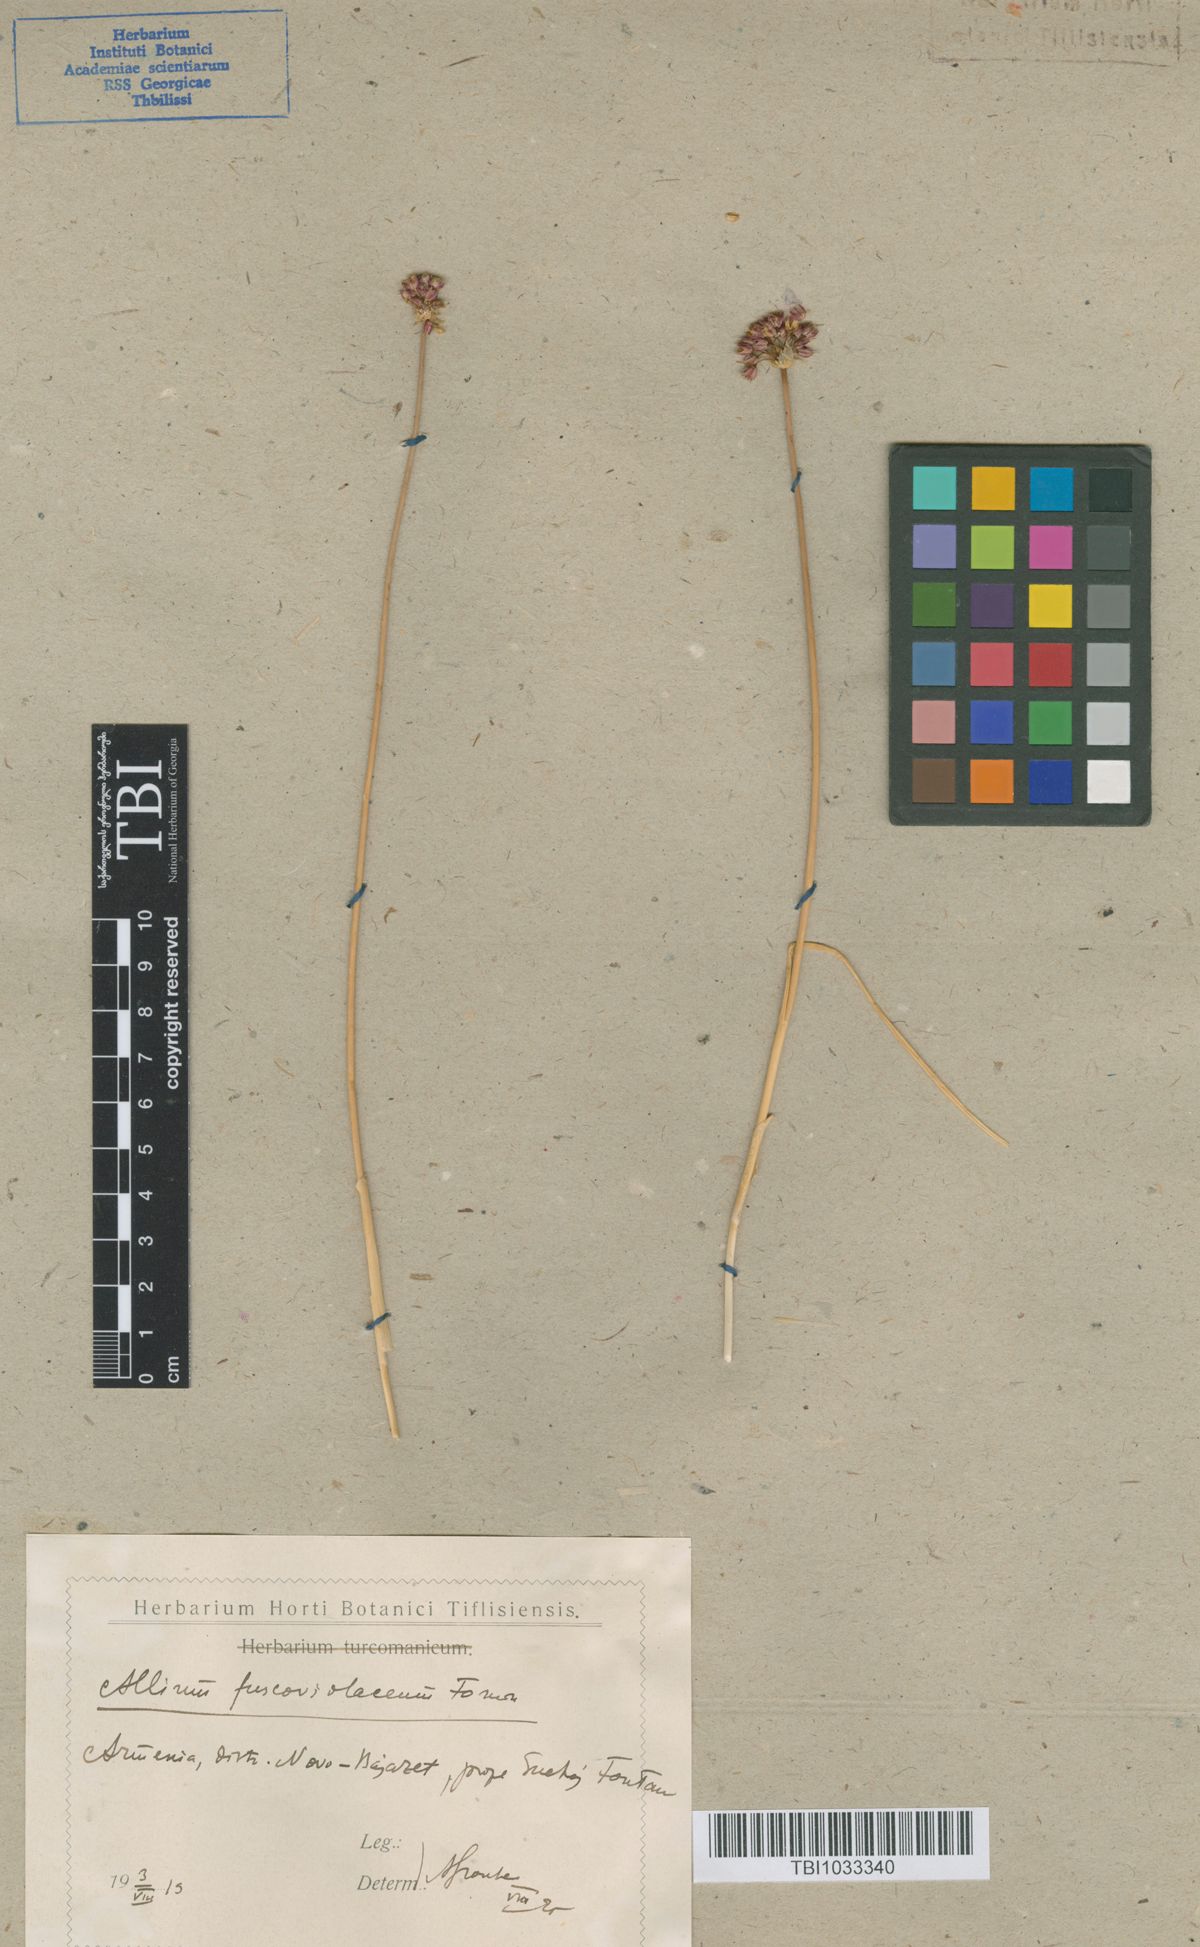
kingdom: Plantae
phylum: Tracheophyta
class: Liliopsida
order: Asparagales
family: Amaryllidaceae
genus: Allium
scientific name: Allium fuscoviolaceum
